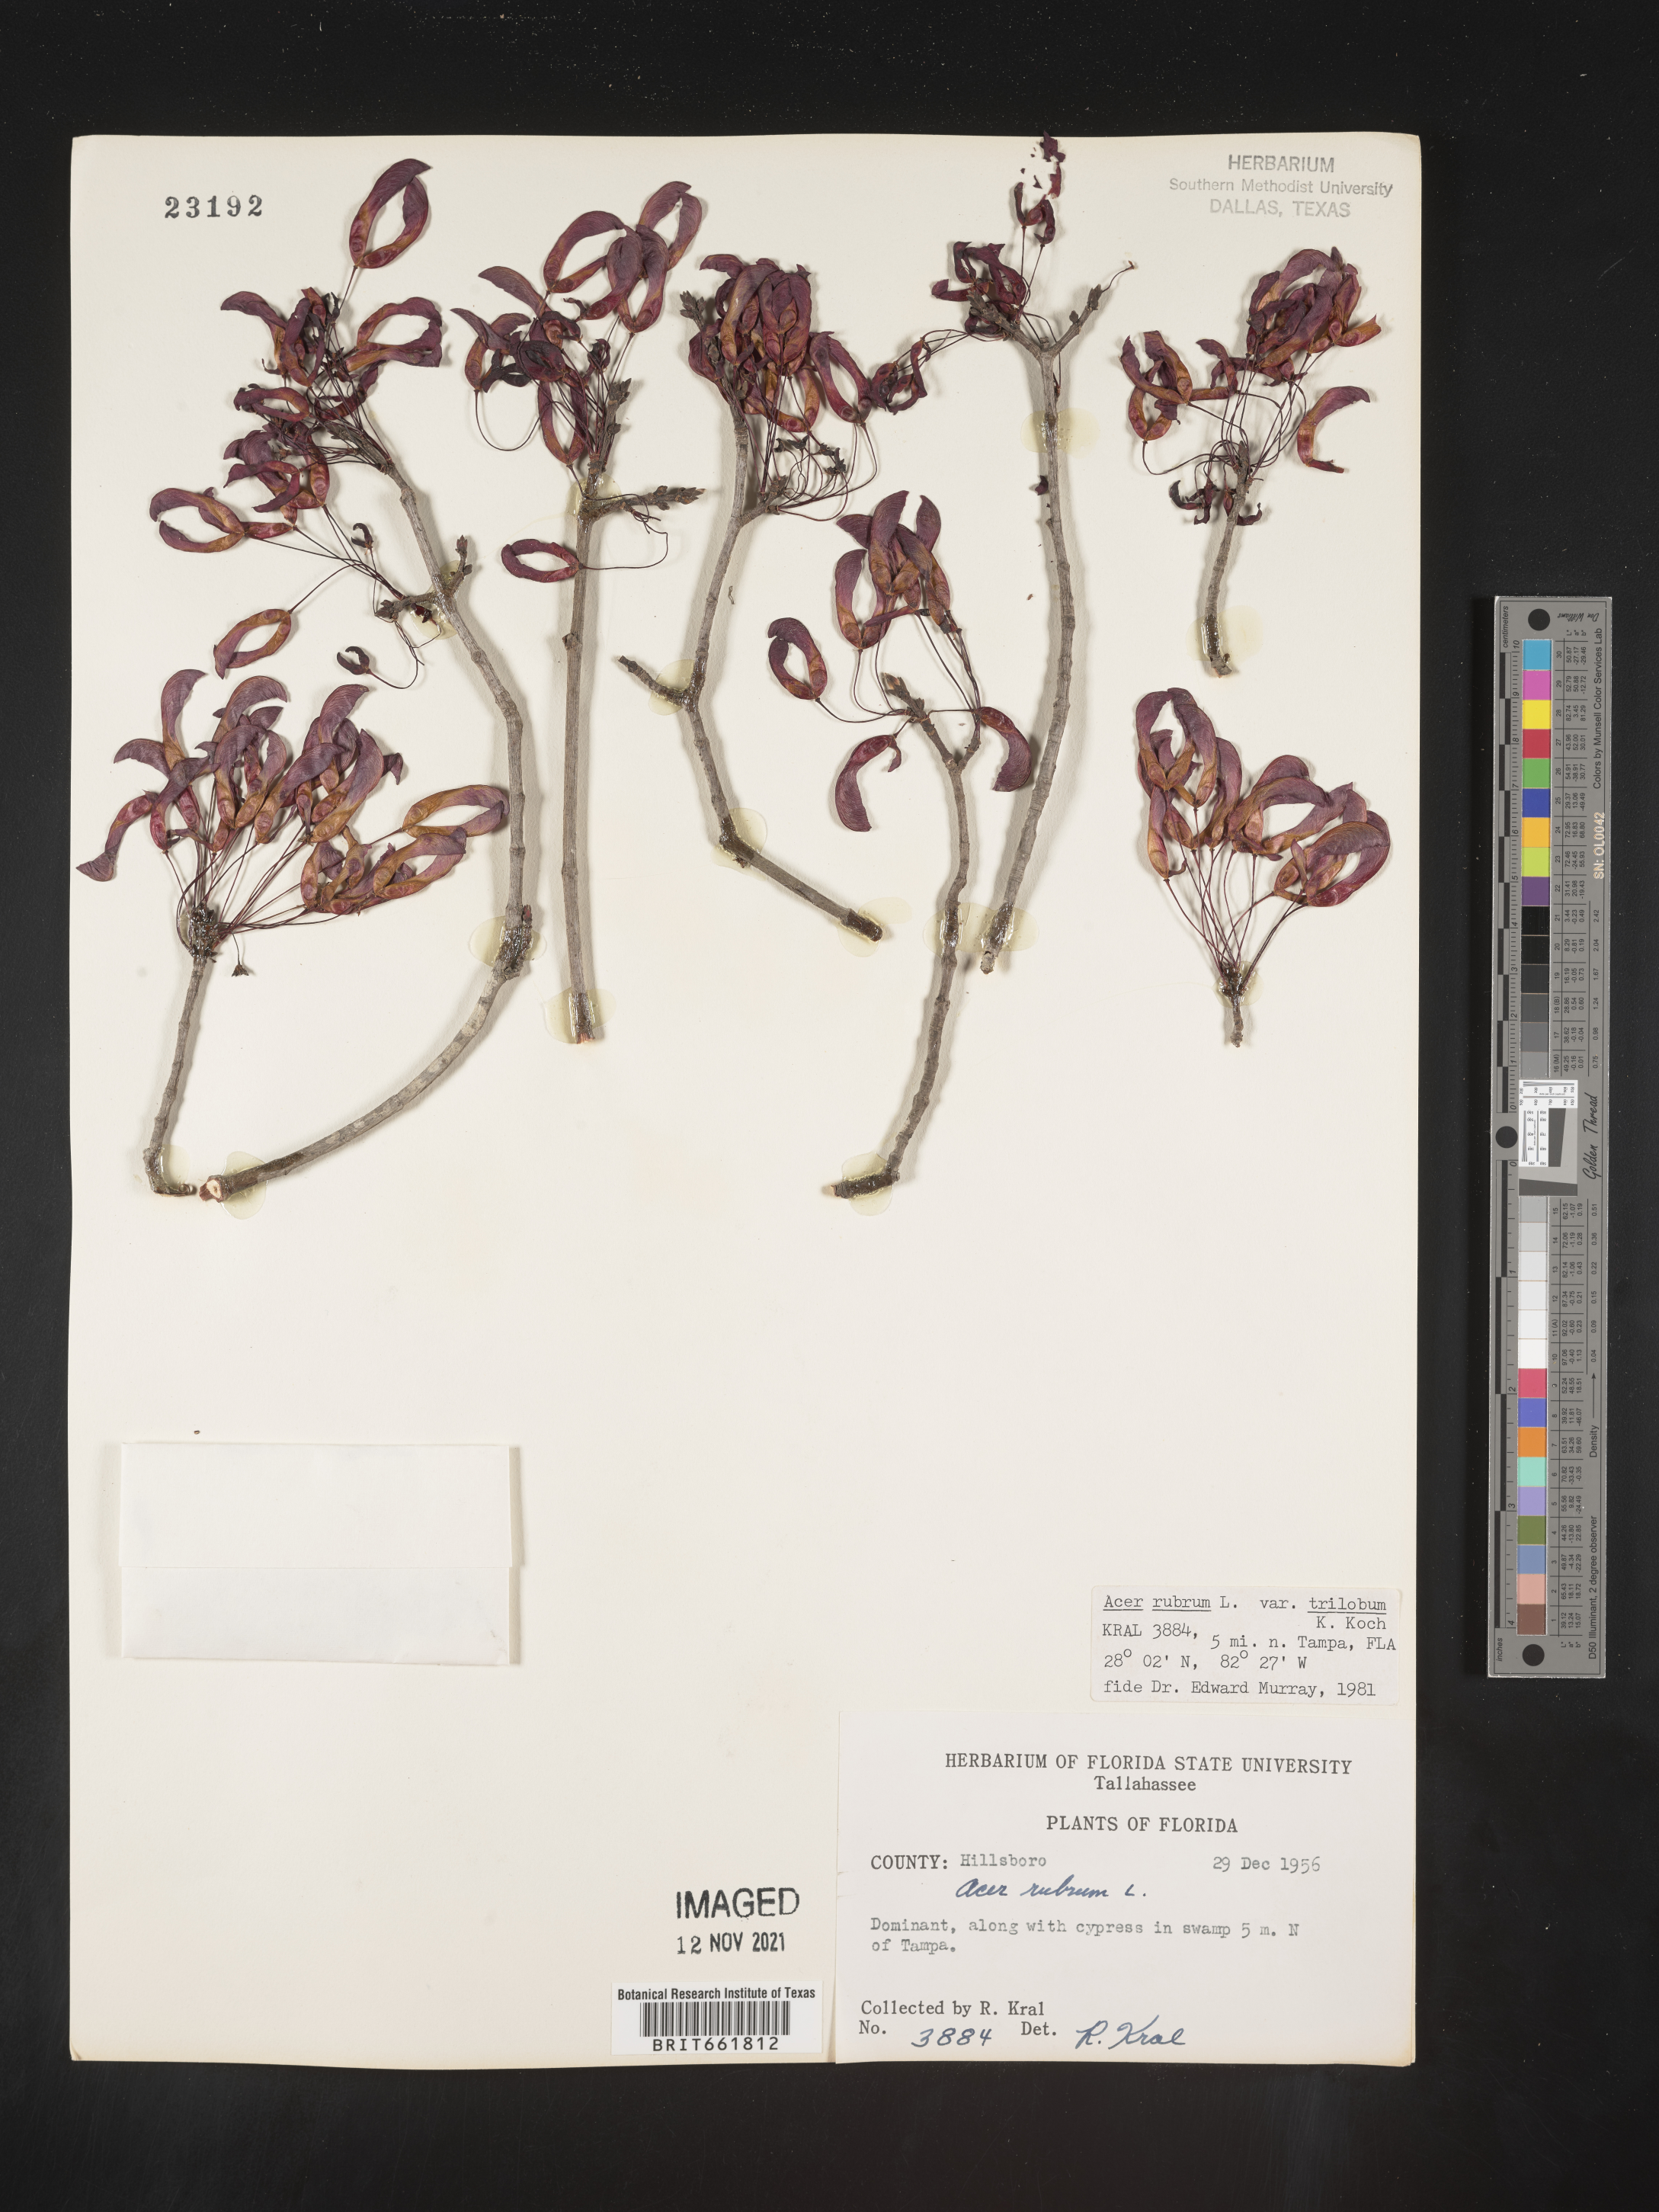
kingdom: Plantae
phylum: Tracheophyta
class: Magnoliopsida
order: Sapindales
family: Sapindaceae
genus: Acer
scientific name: Acer rubrum
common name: Red maple
